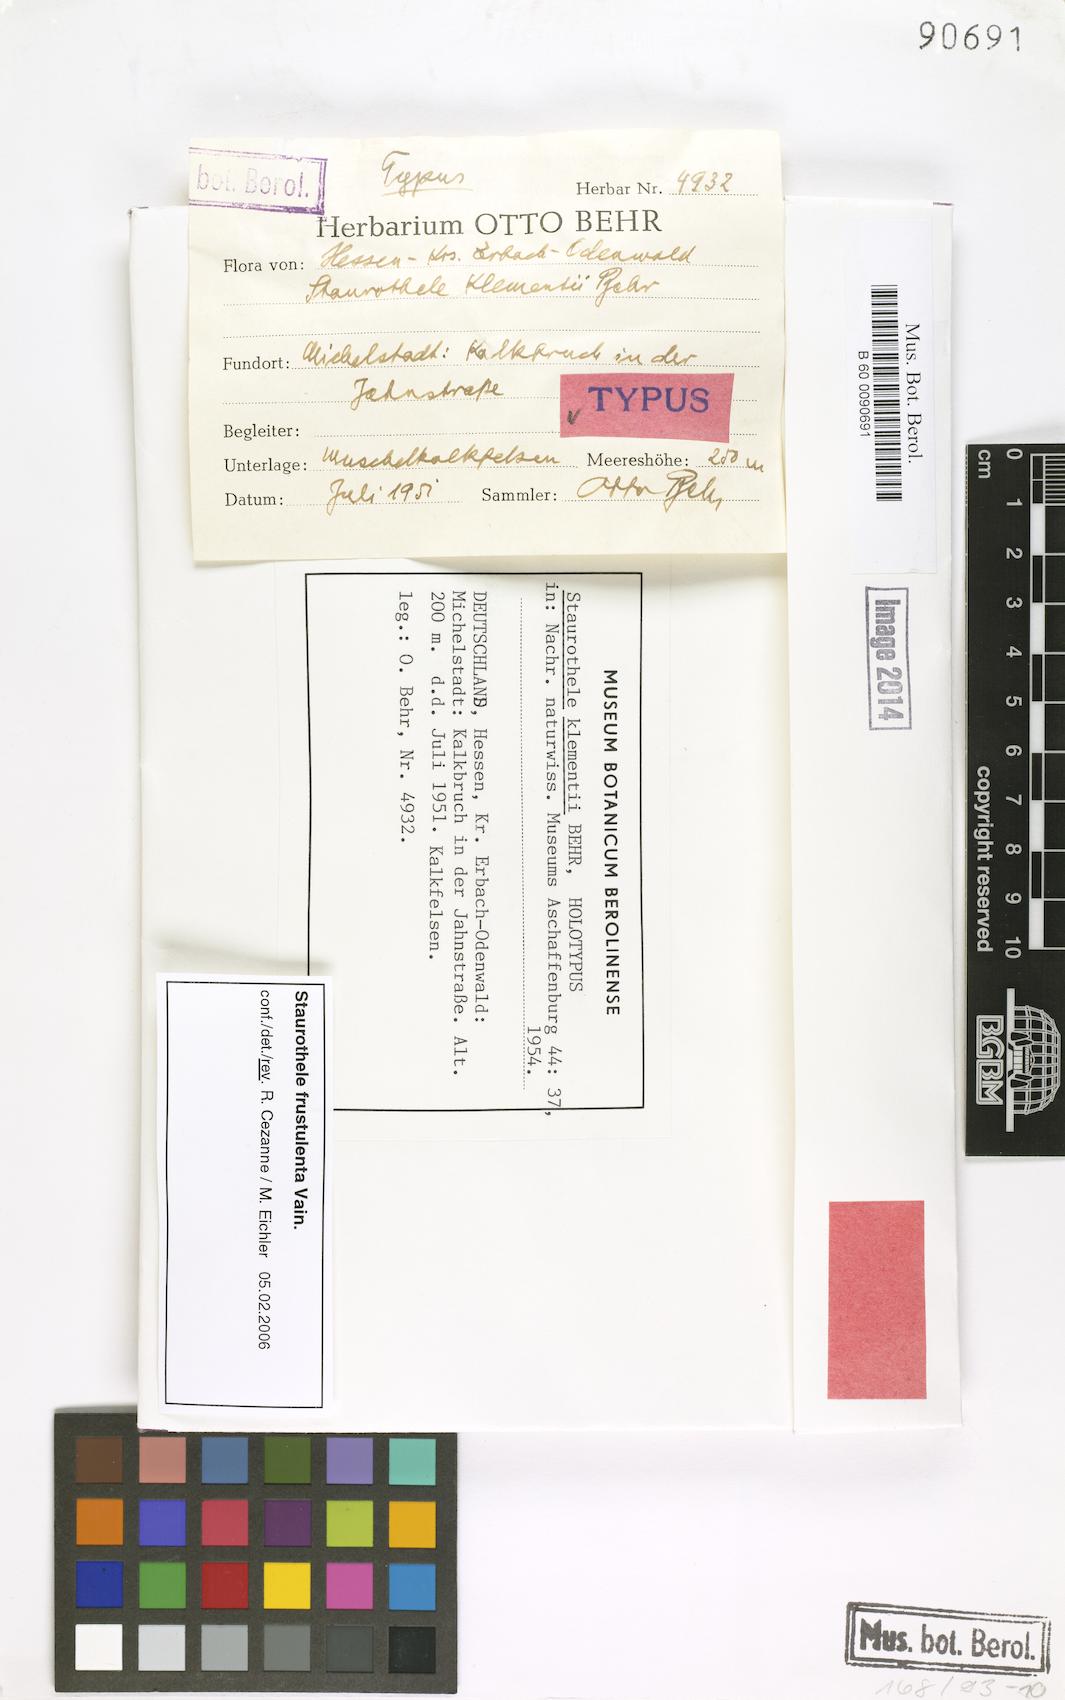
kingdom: Fungi
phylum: Ascomycota
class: Eurotiomycetes
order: Verrucariales
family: Verrucariaceae
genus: Staurothele
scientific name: Staurothele
